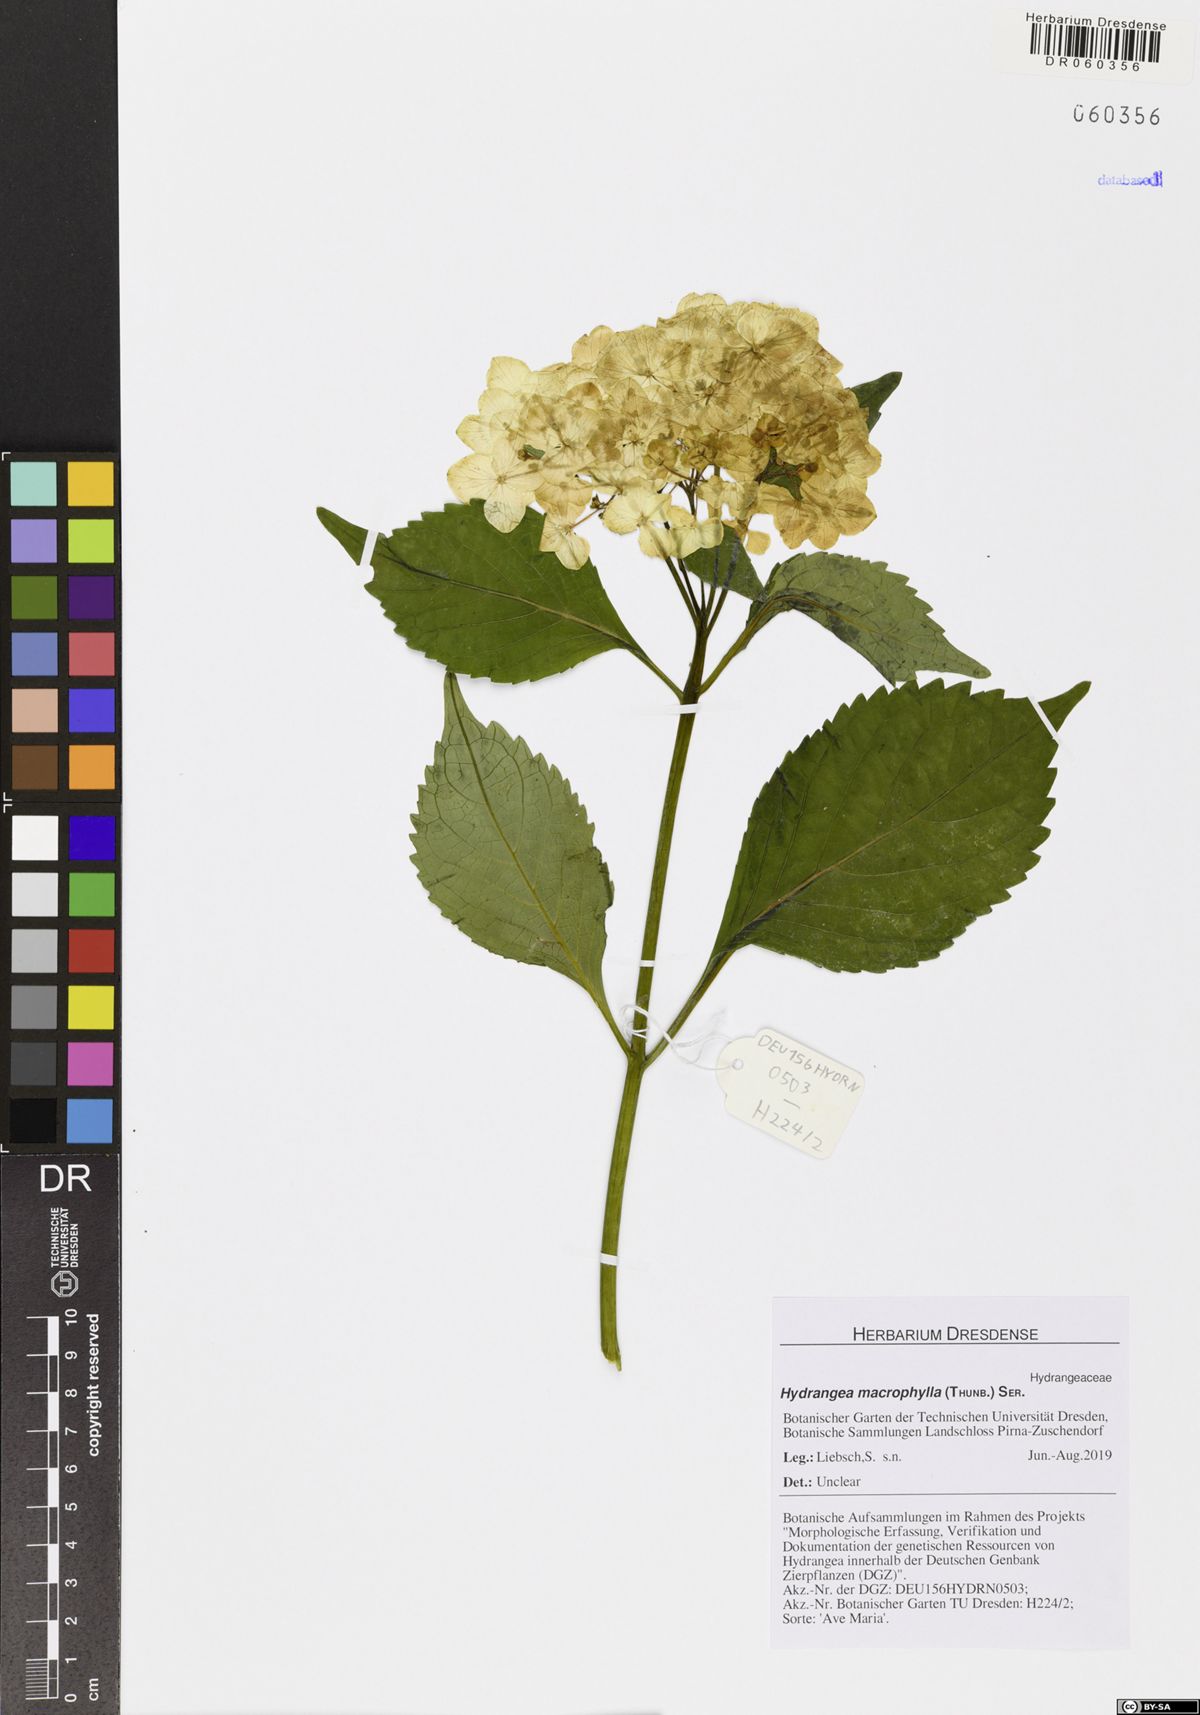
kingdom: Plantae
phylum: Tracheophyta
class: Magnoliopsida
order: Cornales
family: Hydrangeaceae
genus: Hydrangea
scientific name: Hydrangea macrophylla
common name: Hydrangea
